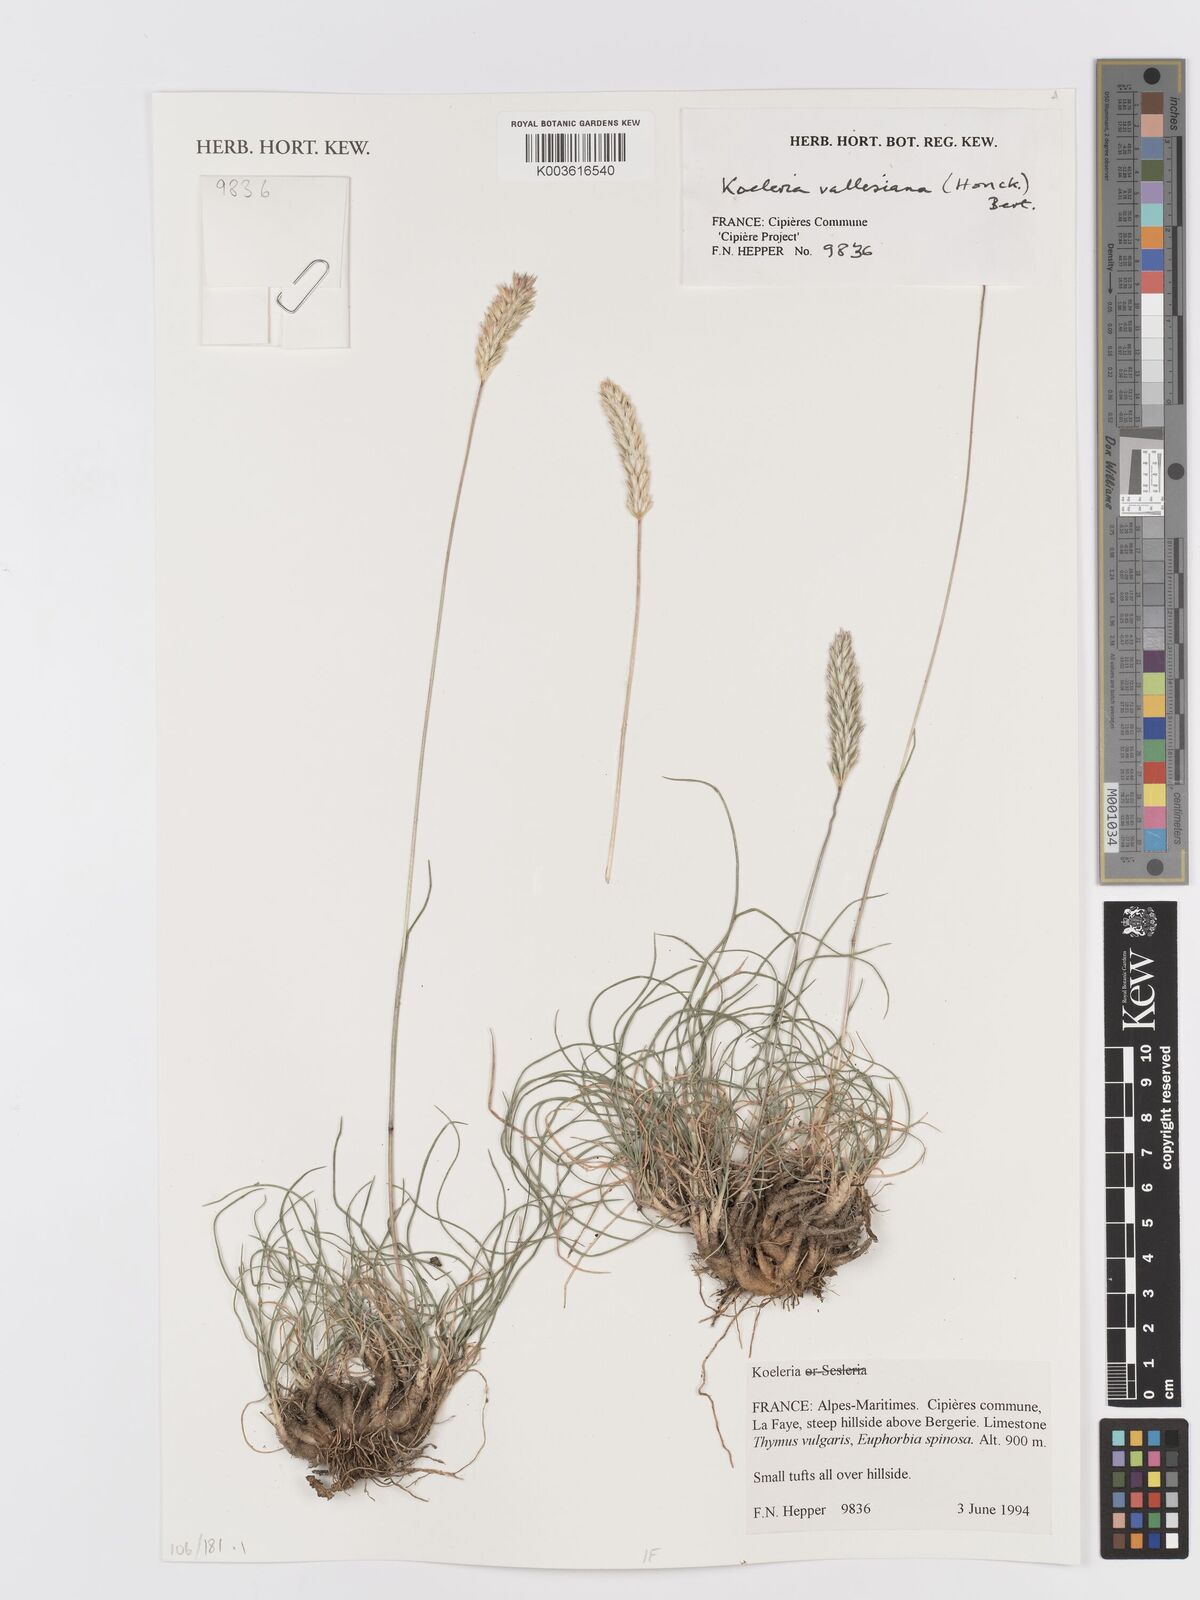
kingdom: Plantae
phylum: Tracheophyta
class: Liliopsida
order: Poales
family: Poaceae
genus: Koeleria
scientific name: Koeleria vallesiana
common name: Somerset hair-grass
